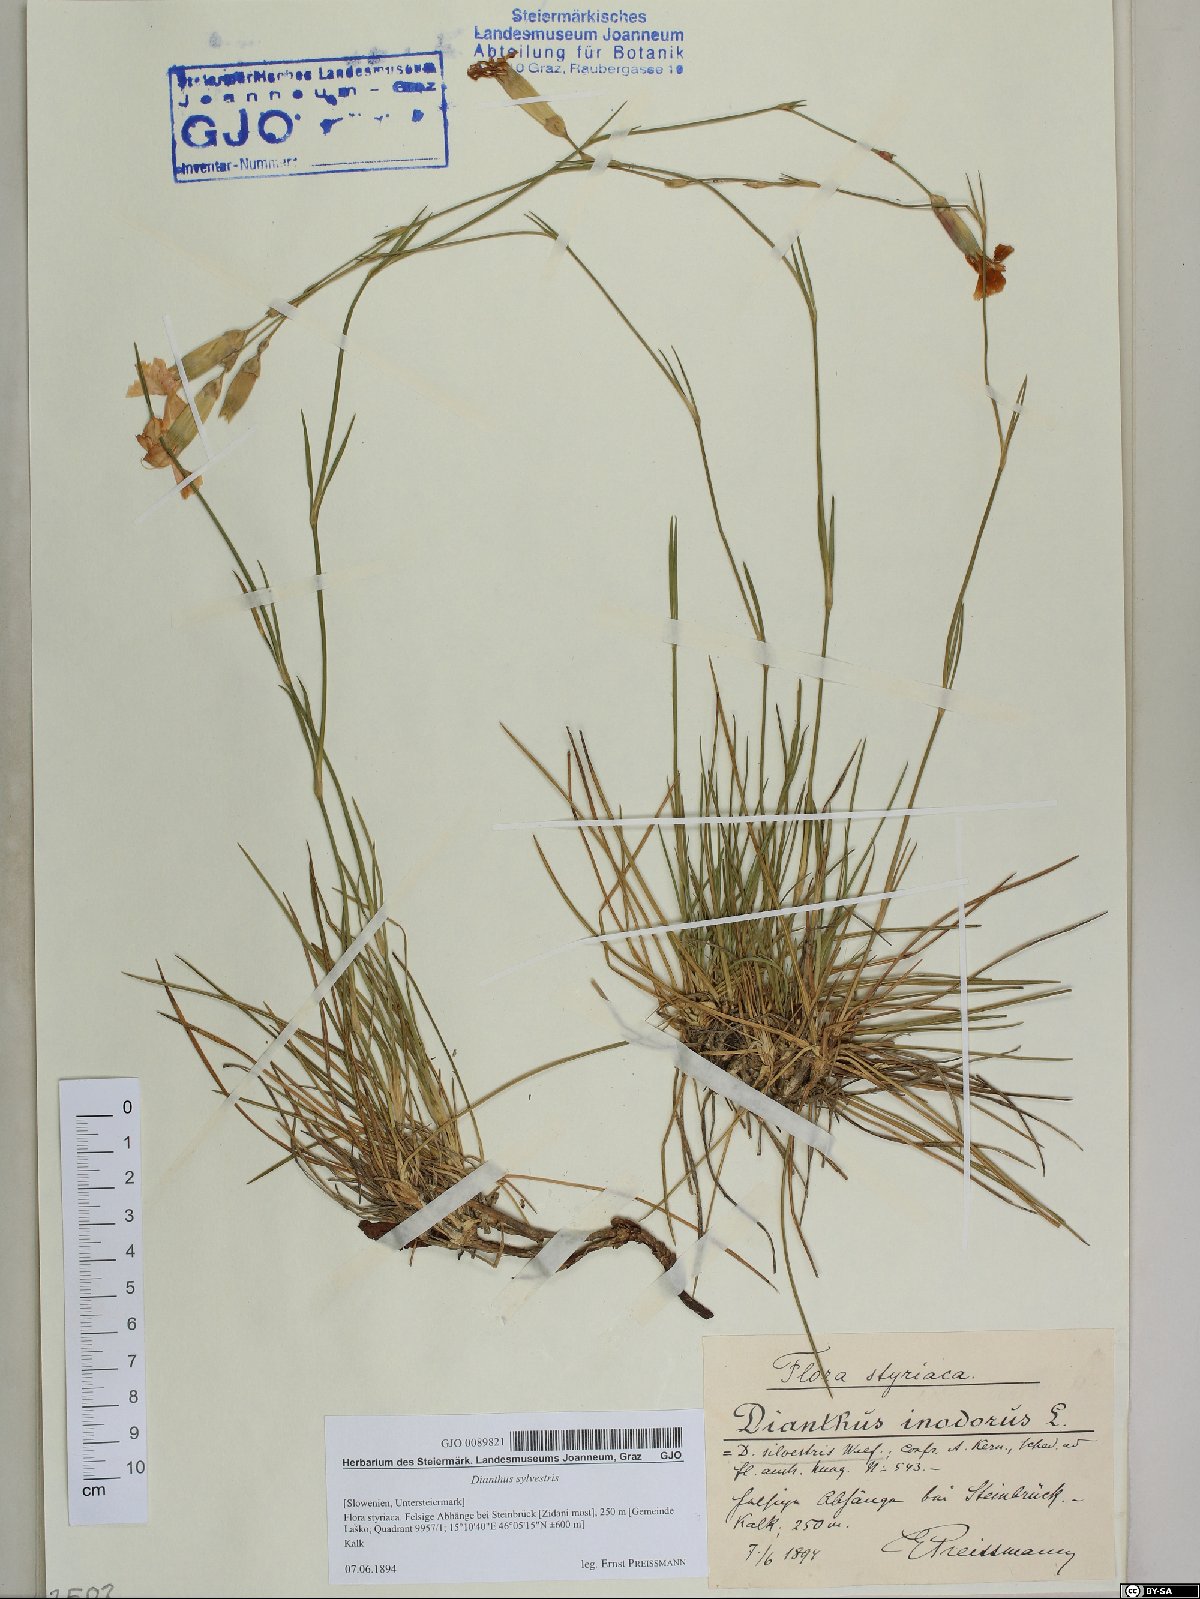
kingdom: Plantae
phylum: Tracheophyta
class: Magnoliopsida
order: Caryophyllales
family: Caryophyllaceae
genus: Dianthus
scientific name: Dianthus sylvestris
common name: Wood pink
